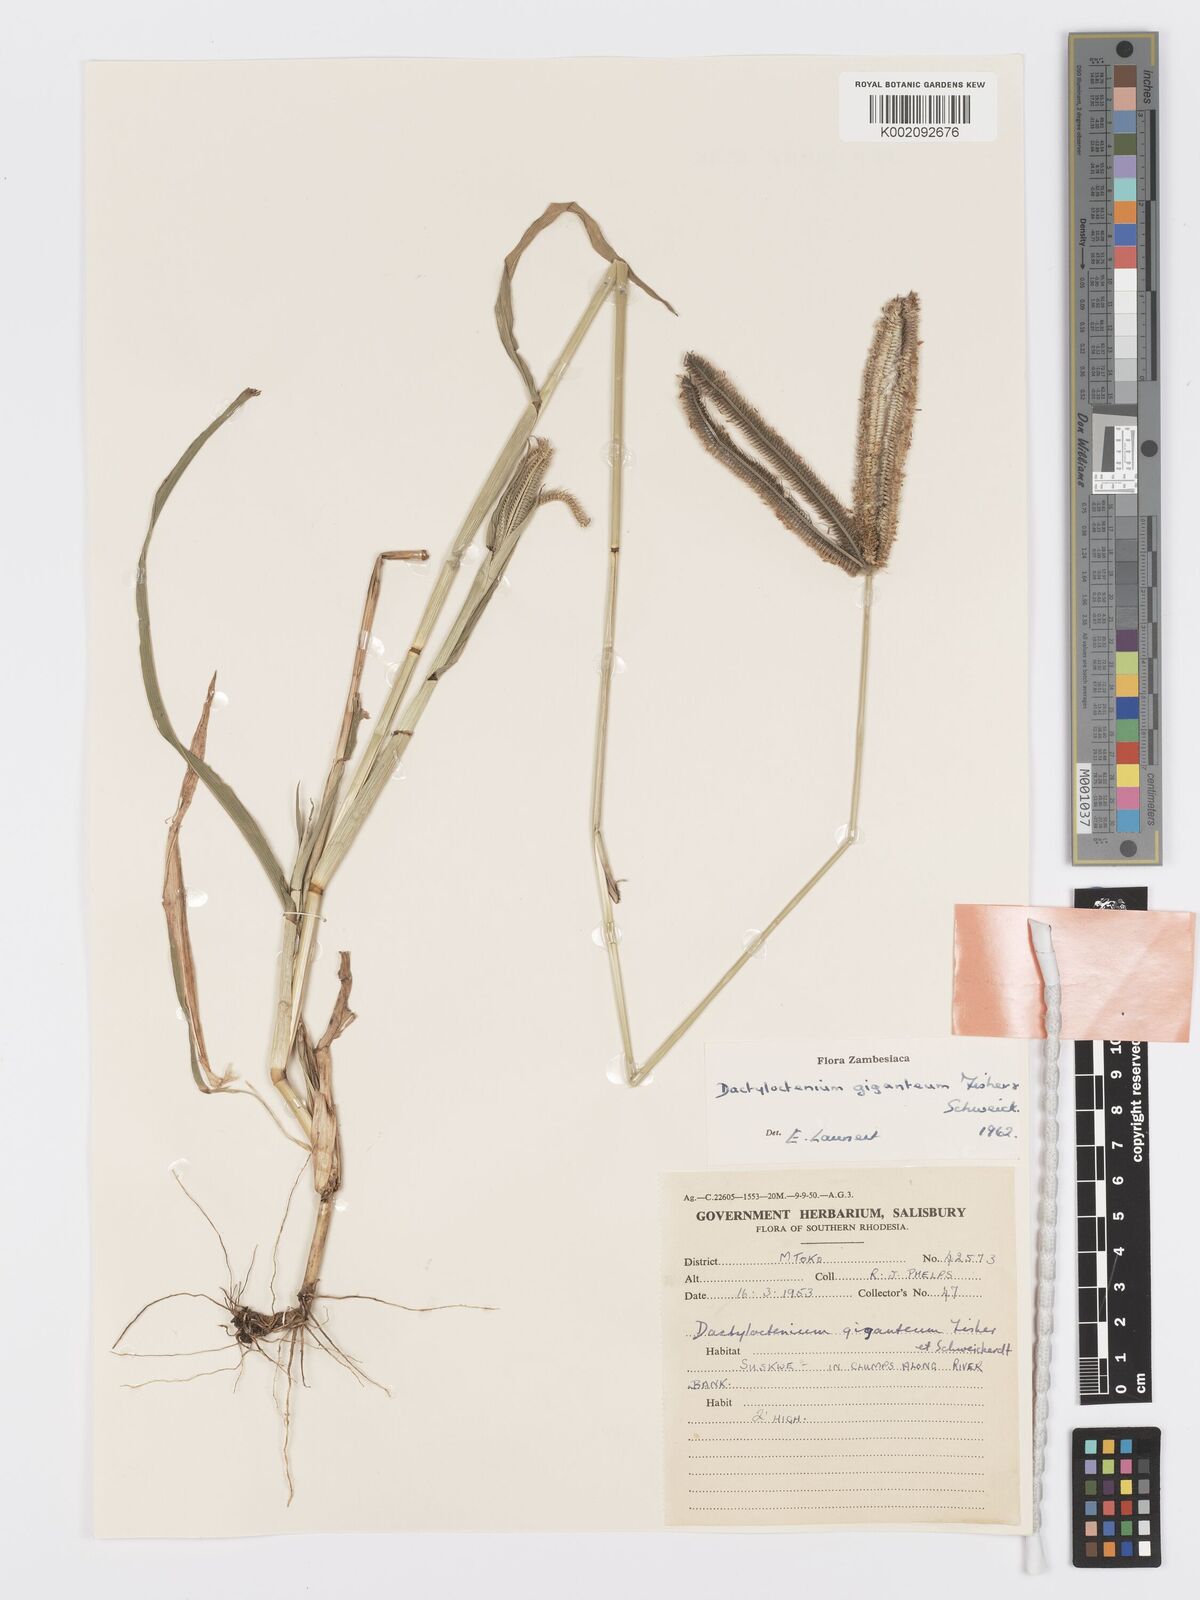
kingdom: Plantae
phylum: Tracheophyta
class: Liliopsida
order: Poales
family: Poaceae
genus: Dactyloctenium
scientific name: Dactyloctenium giganteum
